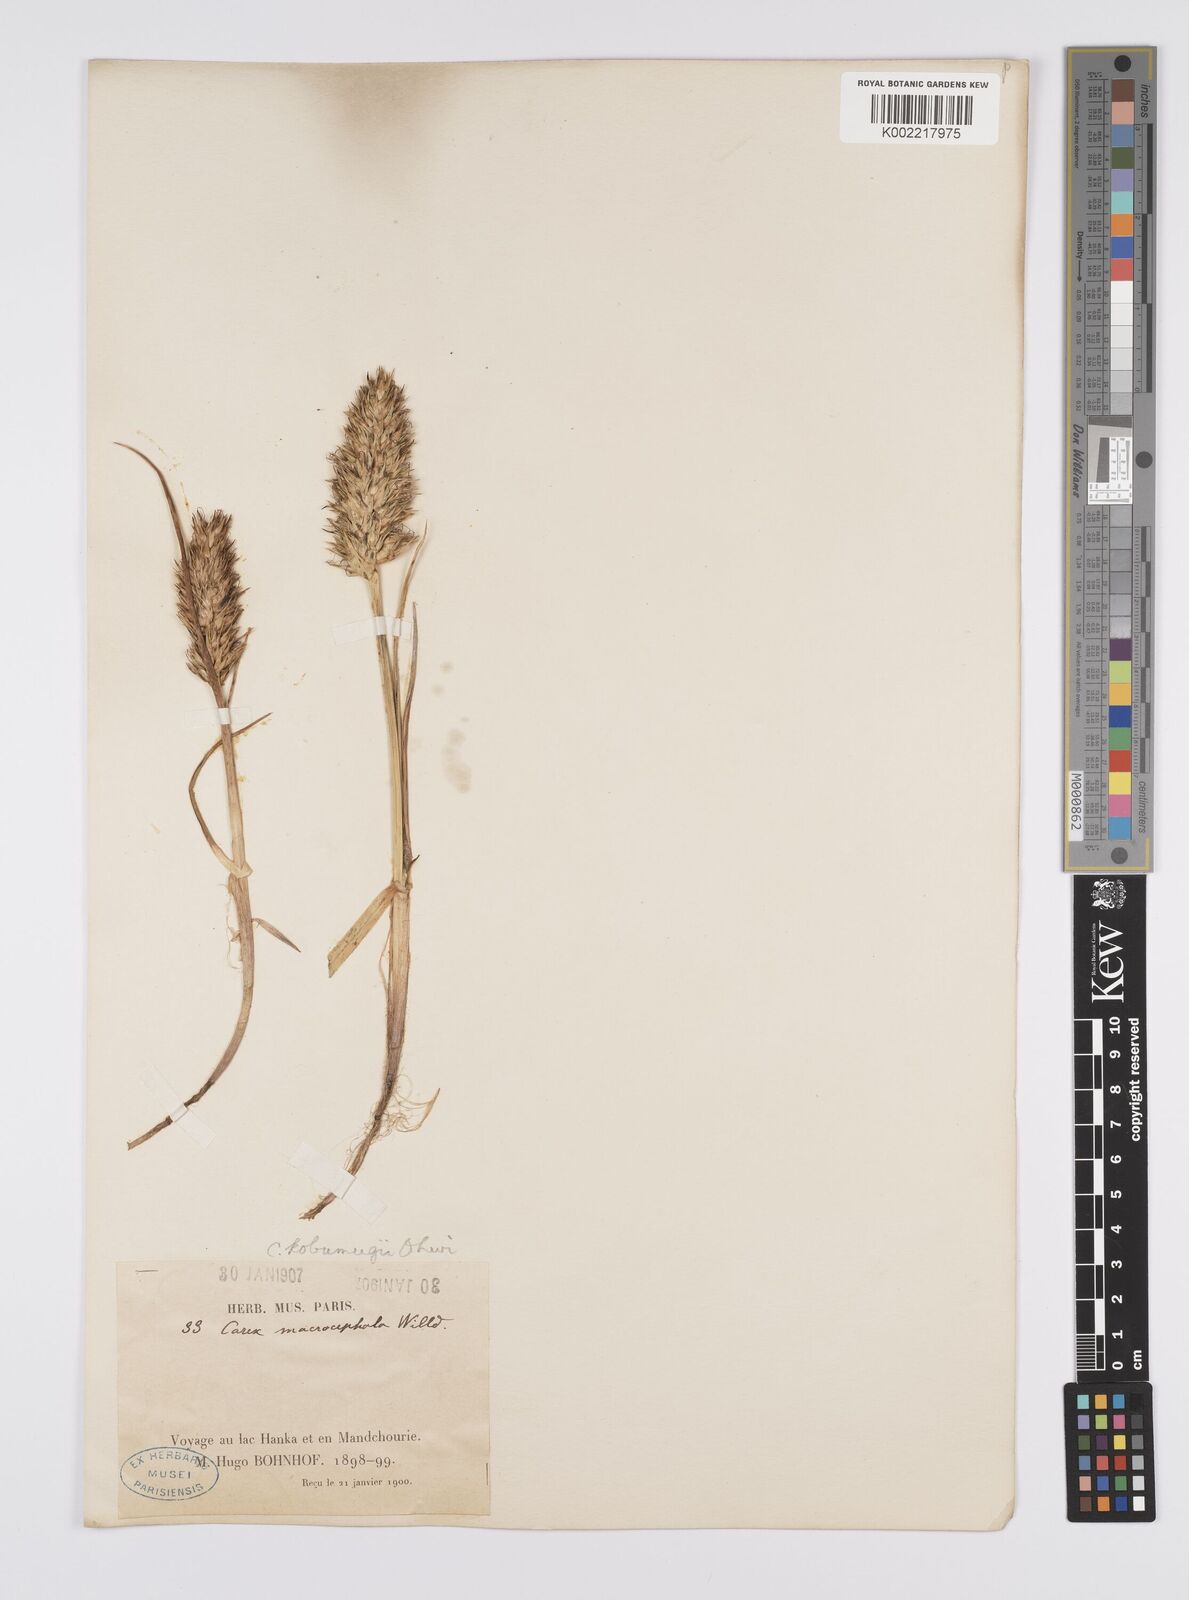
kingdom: Plantae
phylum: Tracheophyta
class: Liliopsida
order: Poales
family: Cyperaceae
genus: Carex
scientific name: Carex macrocephala
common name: Large-head sedge
